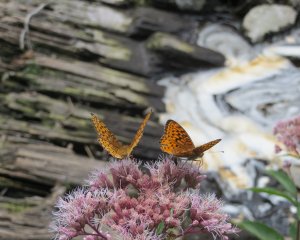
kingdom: Animalia
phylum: Arthropoda
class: Insecta
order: Lepidoptera
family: Nymphalidae
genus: Speyeria
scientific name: Speyeria atlantis
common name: Atlantis Fritillary
